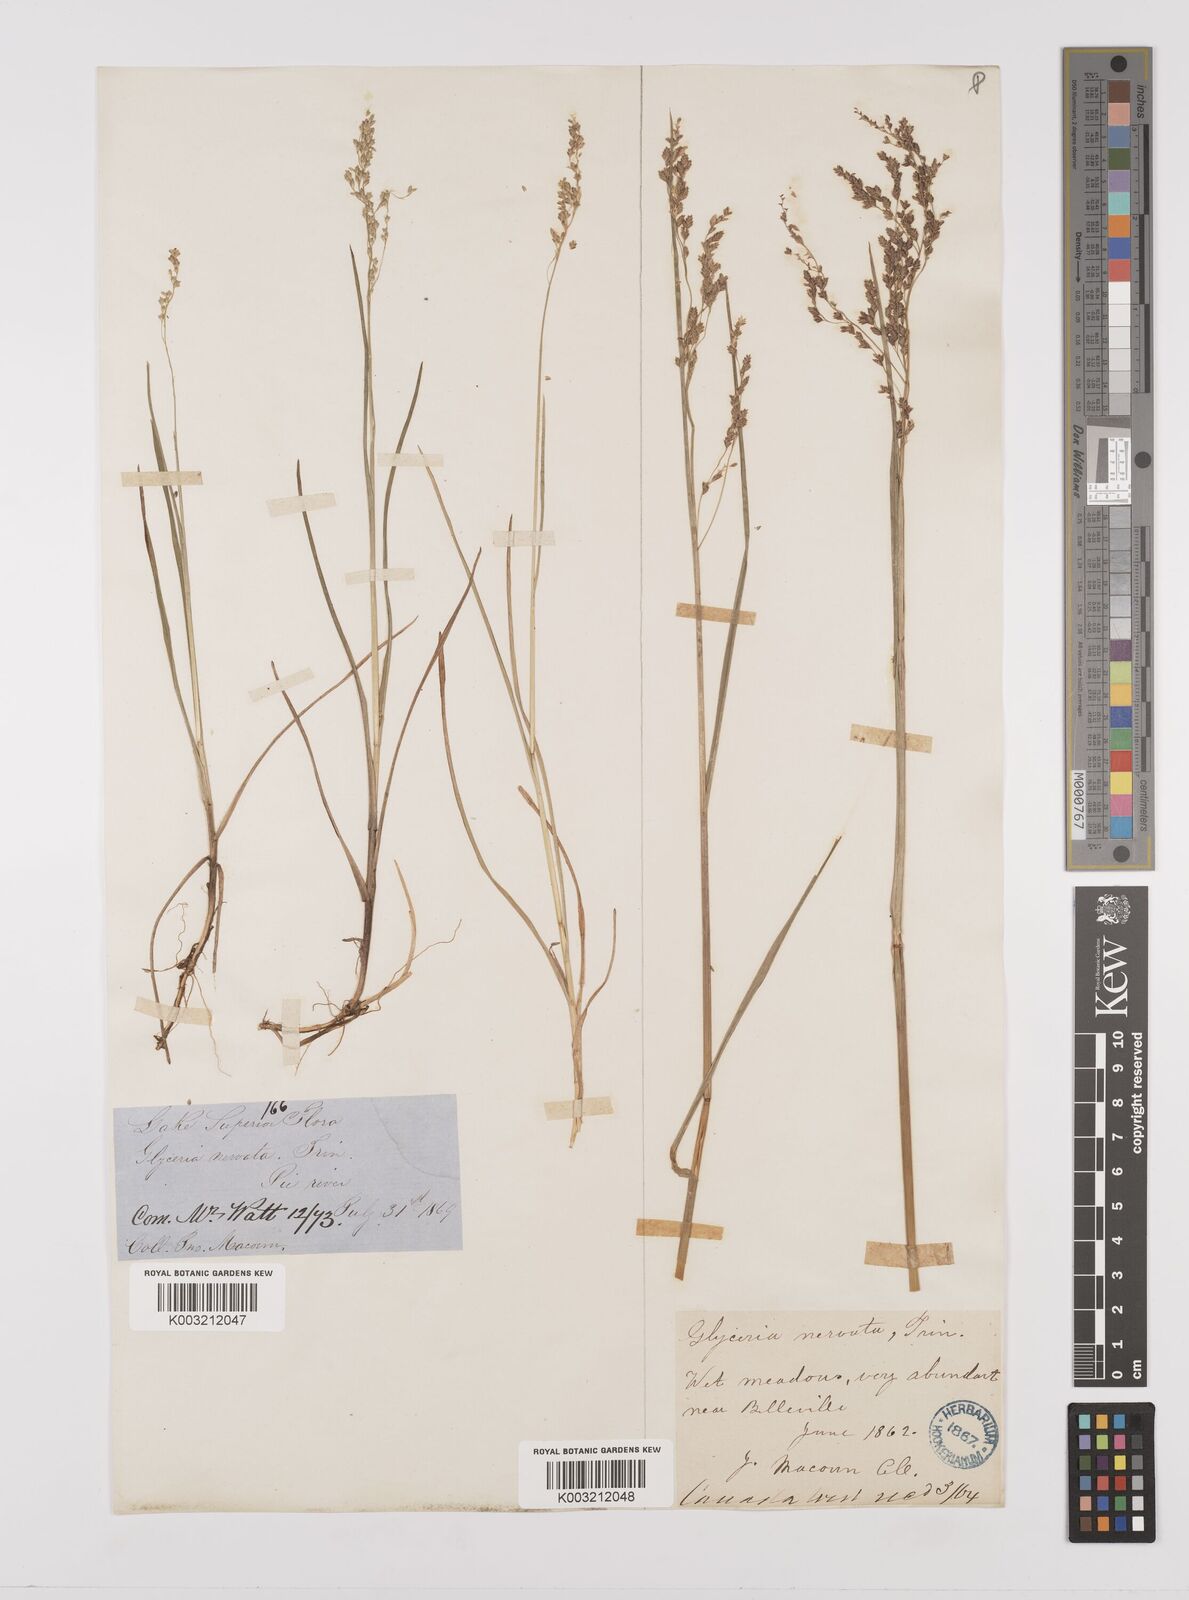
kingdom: Plantae
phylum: Tracheophyta
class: Liliopsida
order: Poales
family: Poaceae
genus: Glyceria
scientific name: Glyceria striata
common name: Fowl manna grass
